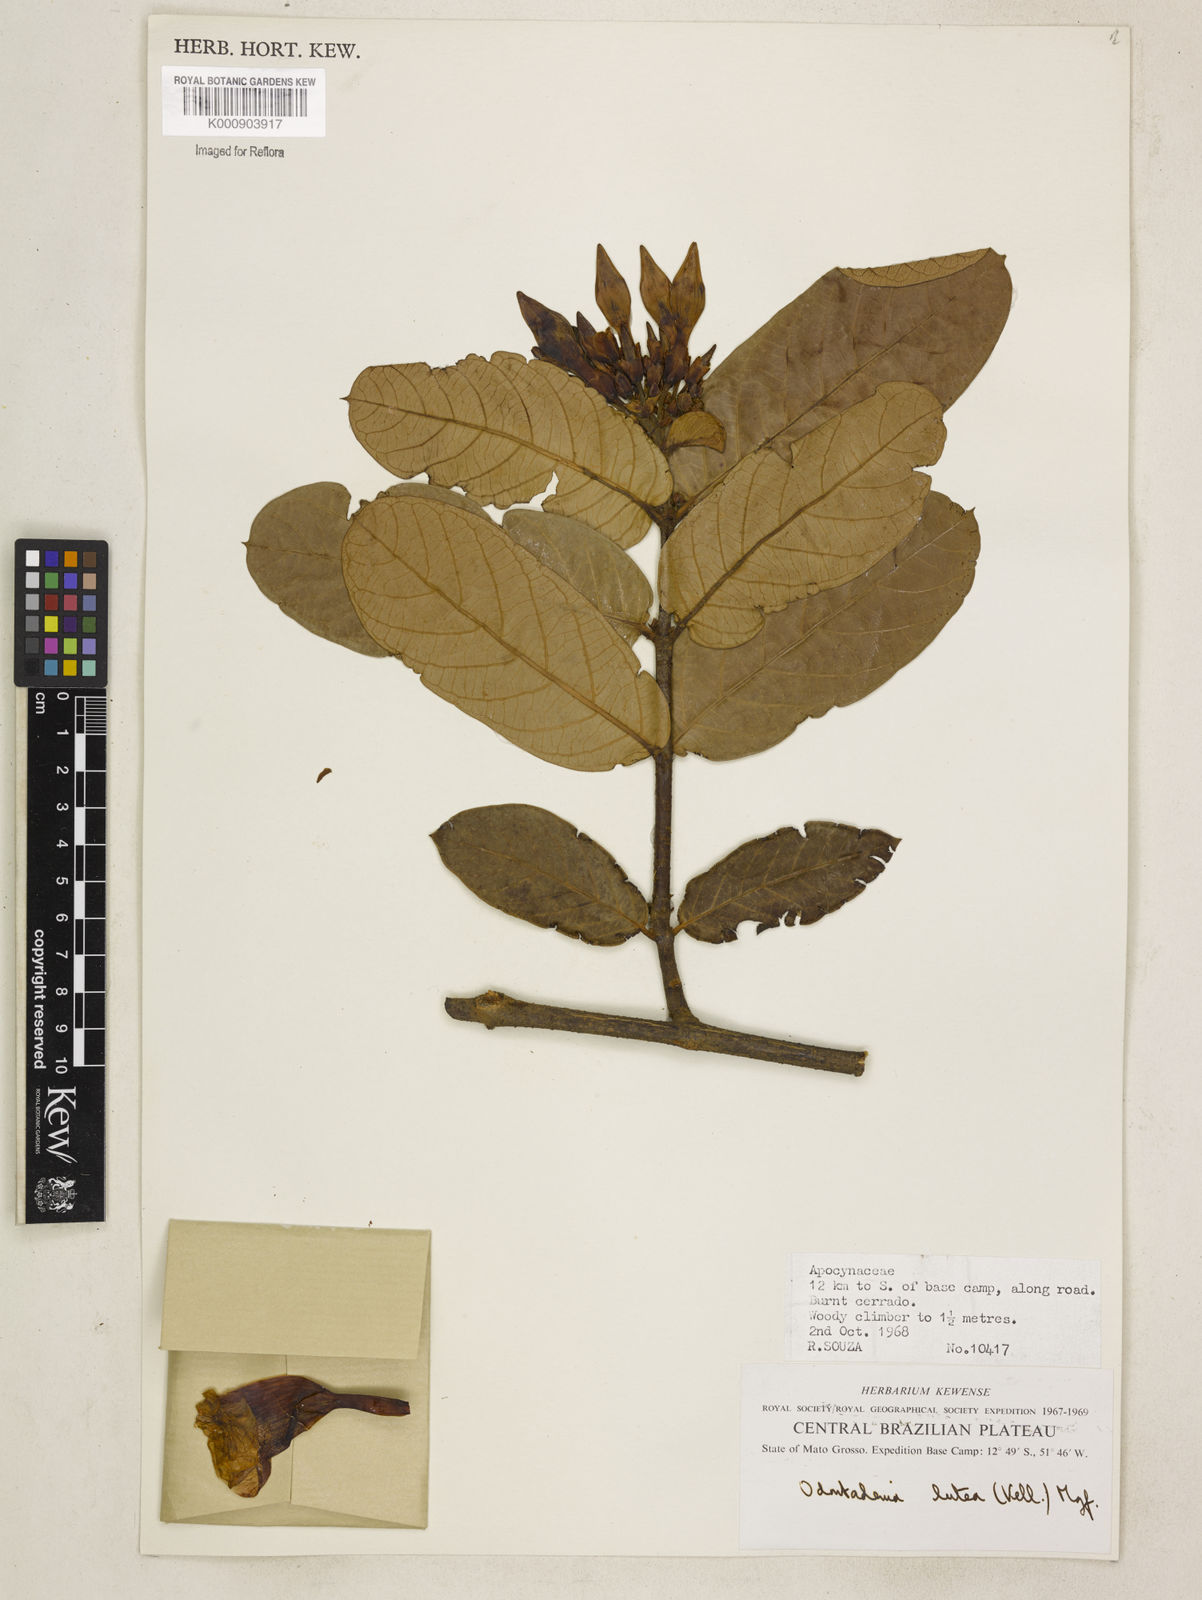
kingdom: Plantae
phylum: Tracheophyta
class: Magnoliopsida
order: Gentianales
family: Apocynaceae
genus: Odontadenia
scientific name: Odontadenia lutea
